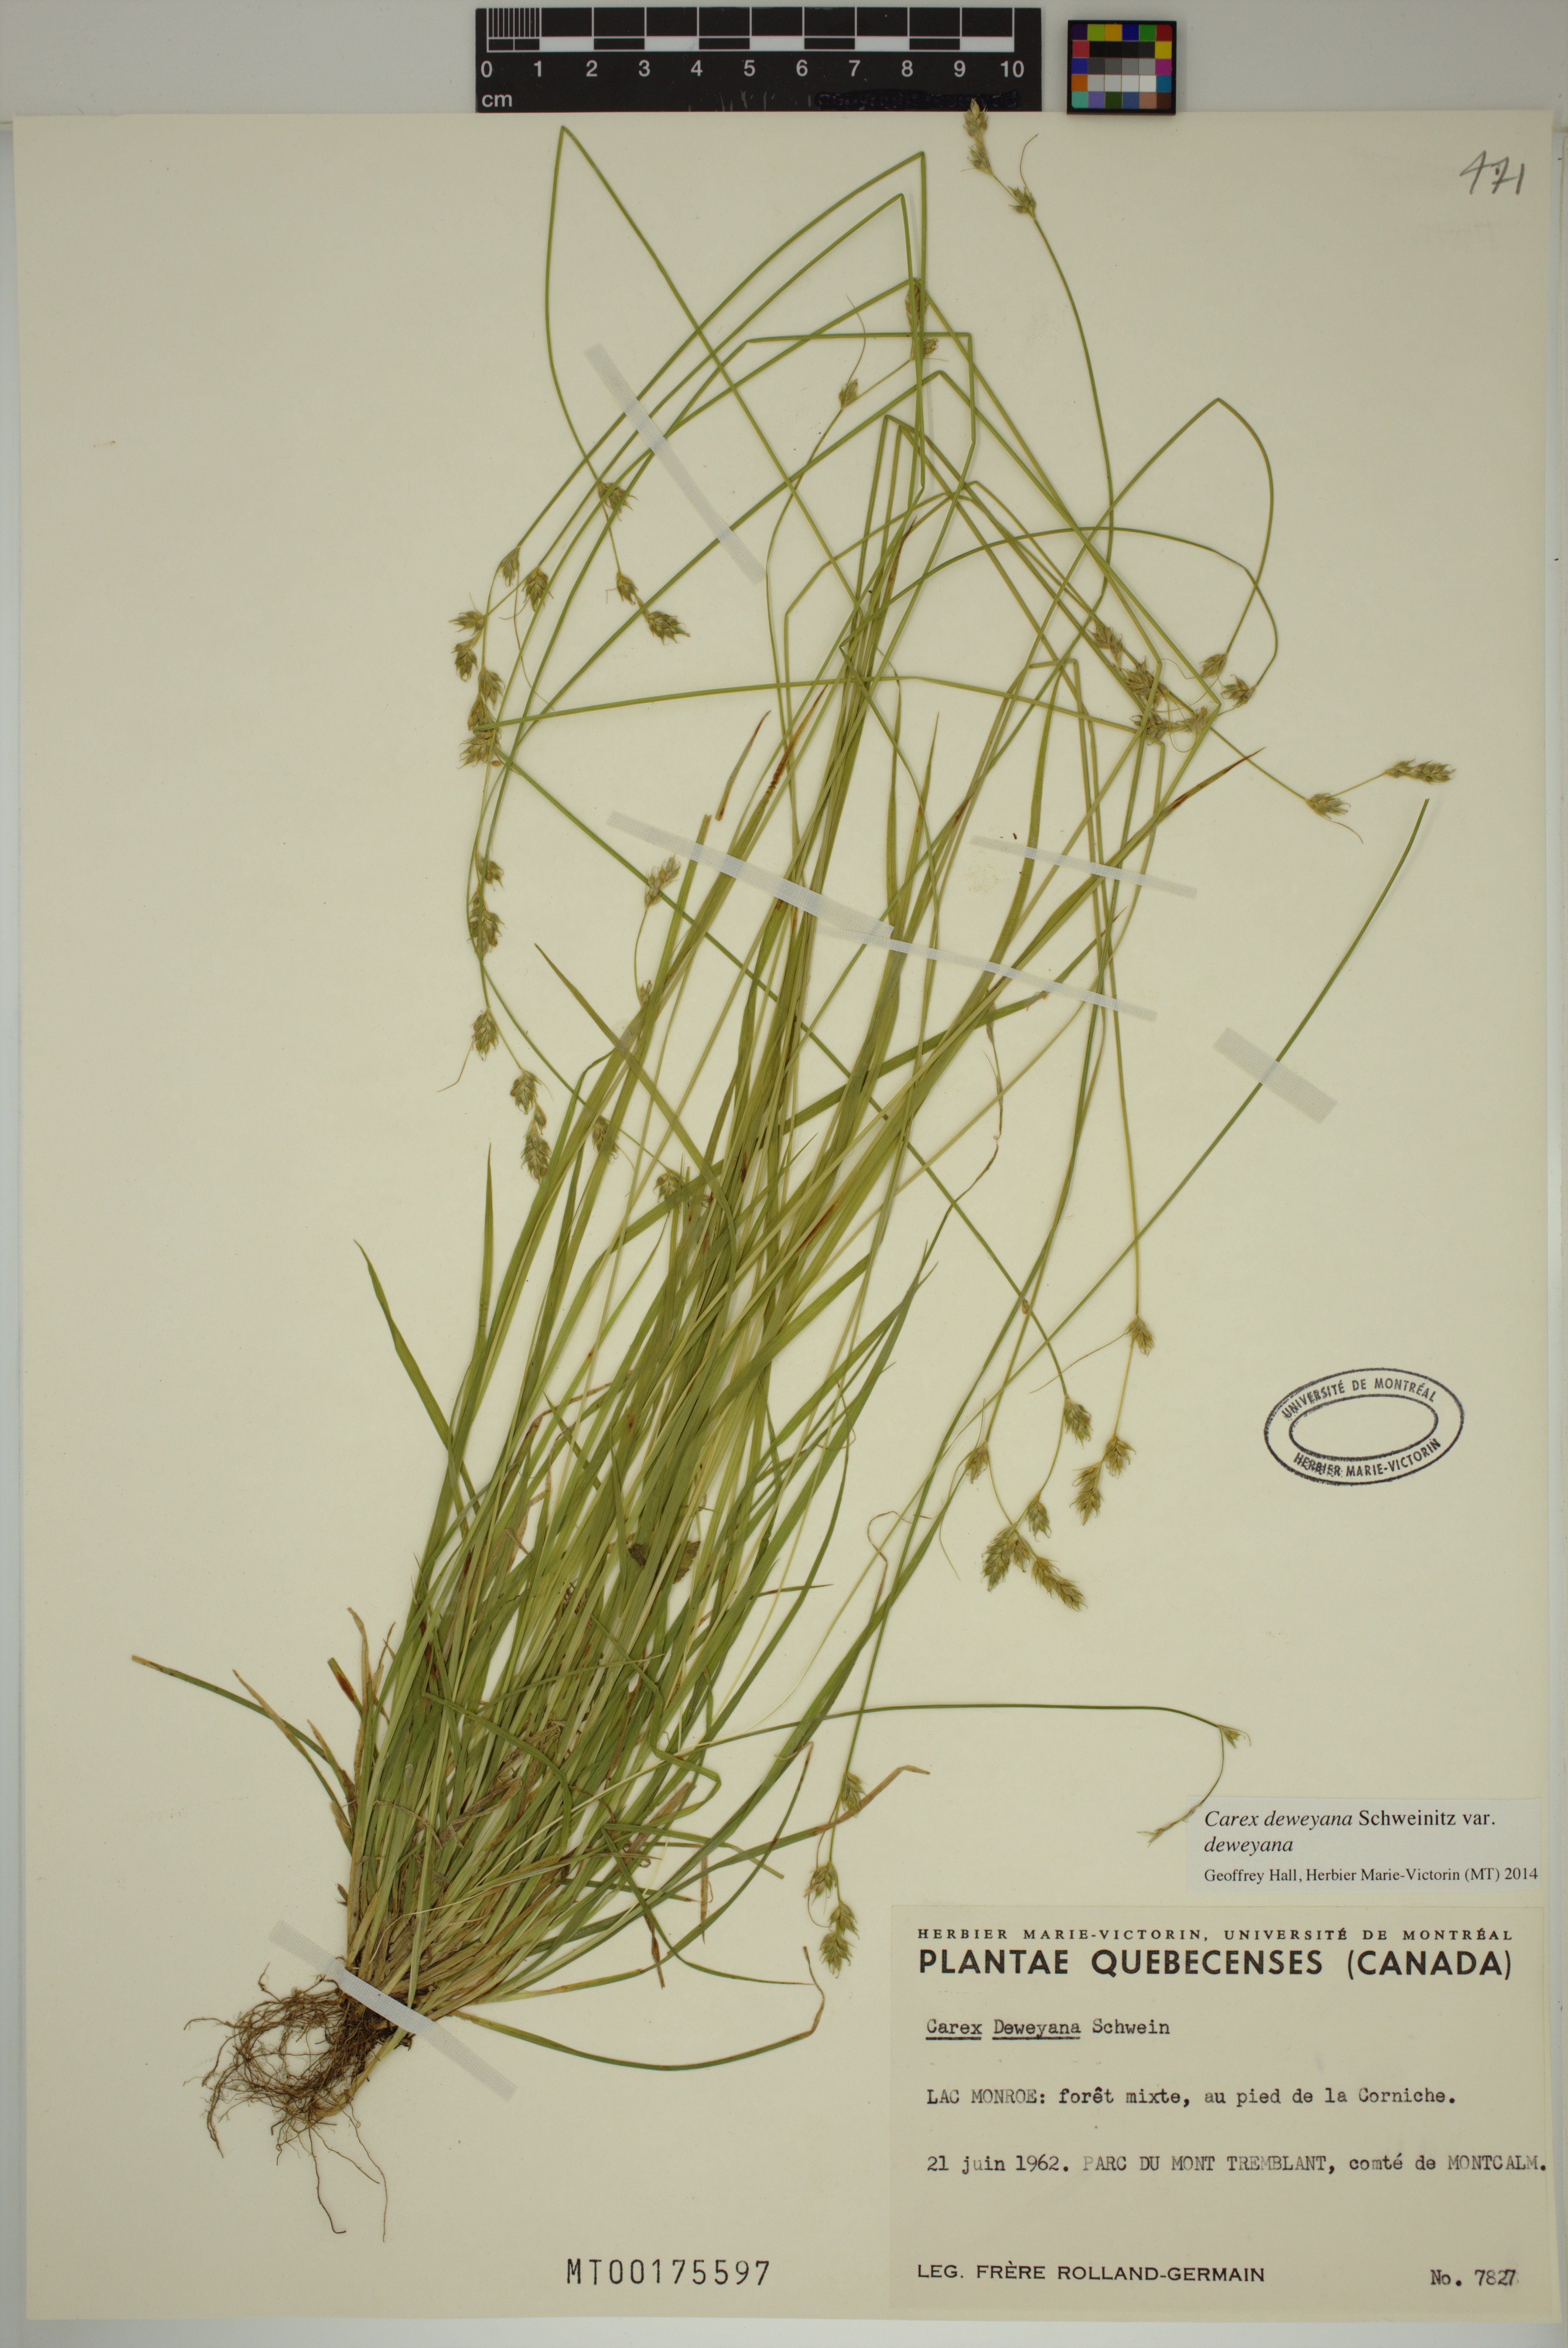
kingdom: Plantae
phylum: Tracheophyta
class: Liliopsida
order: Poales
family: Cyperaceae
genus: Carex
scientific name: Carex deweyana
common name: Dewey's sedge
